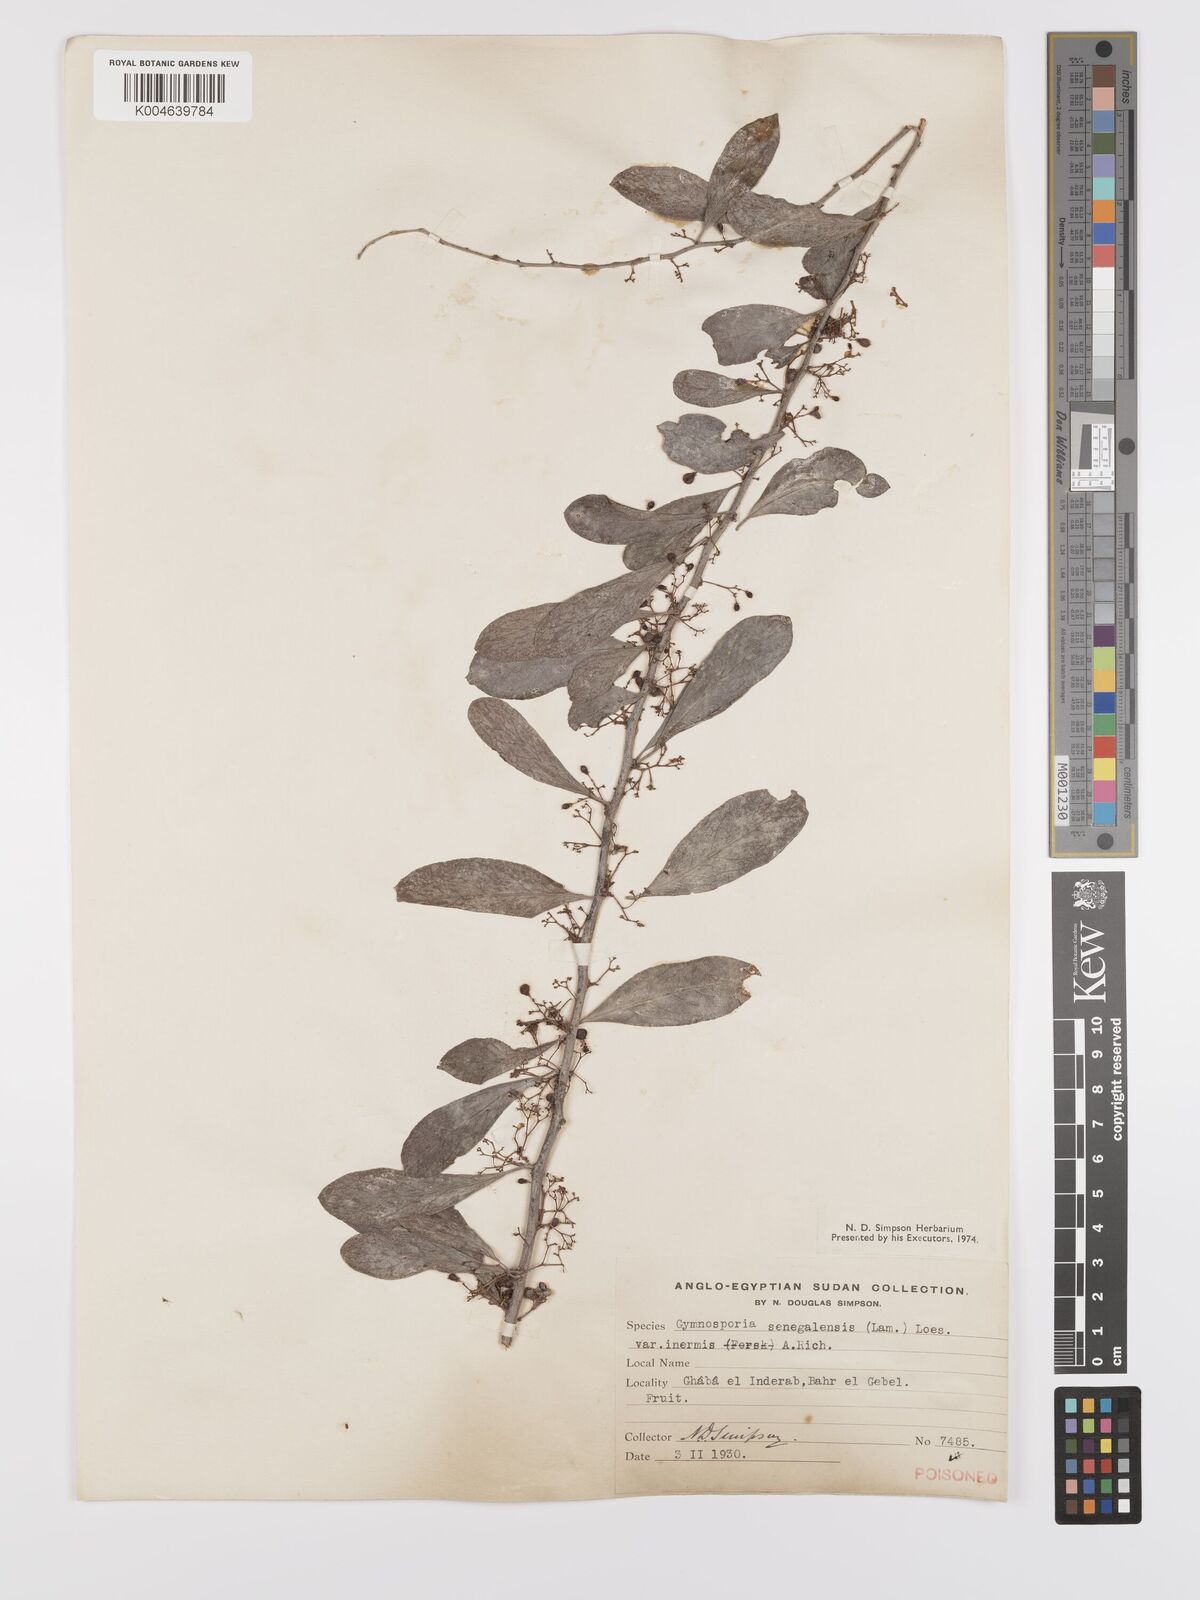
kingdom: Plantae
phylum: Tracheophyta
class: Magnoliopsida
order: Celastrales
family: Celastraceae
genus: Gymnosporia
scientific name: Gymnosporia senegalensis
